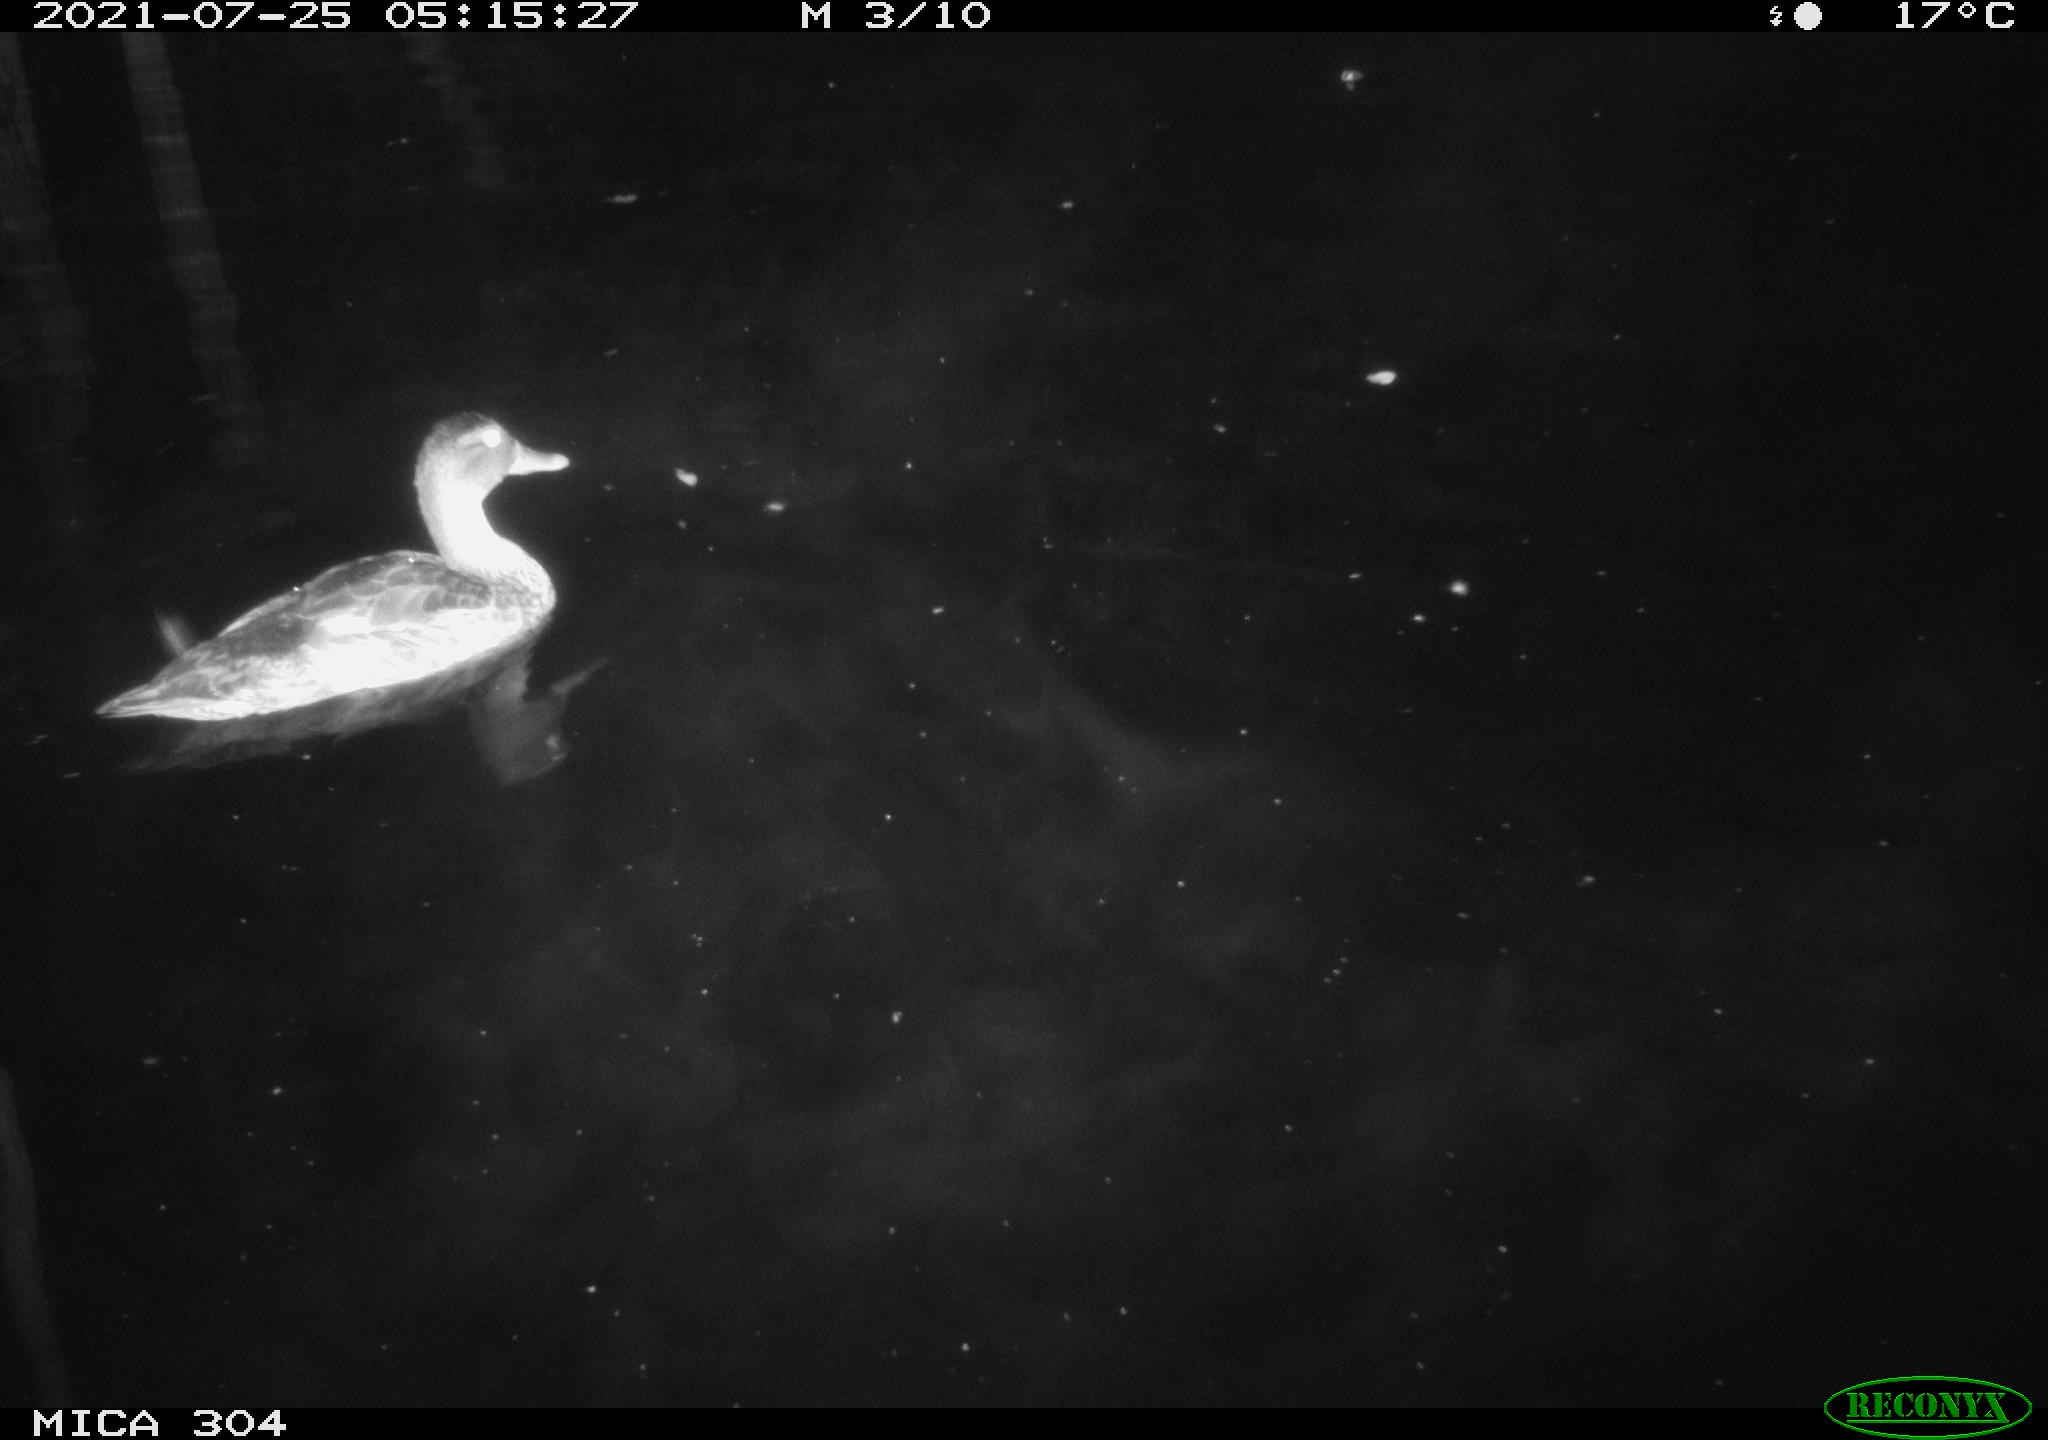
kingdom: Animalia
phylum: Chordata
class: Aves
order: Anseriformes
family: Anatidae
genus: Anas
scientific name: Anas platyrhynchos
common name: Mallard
